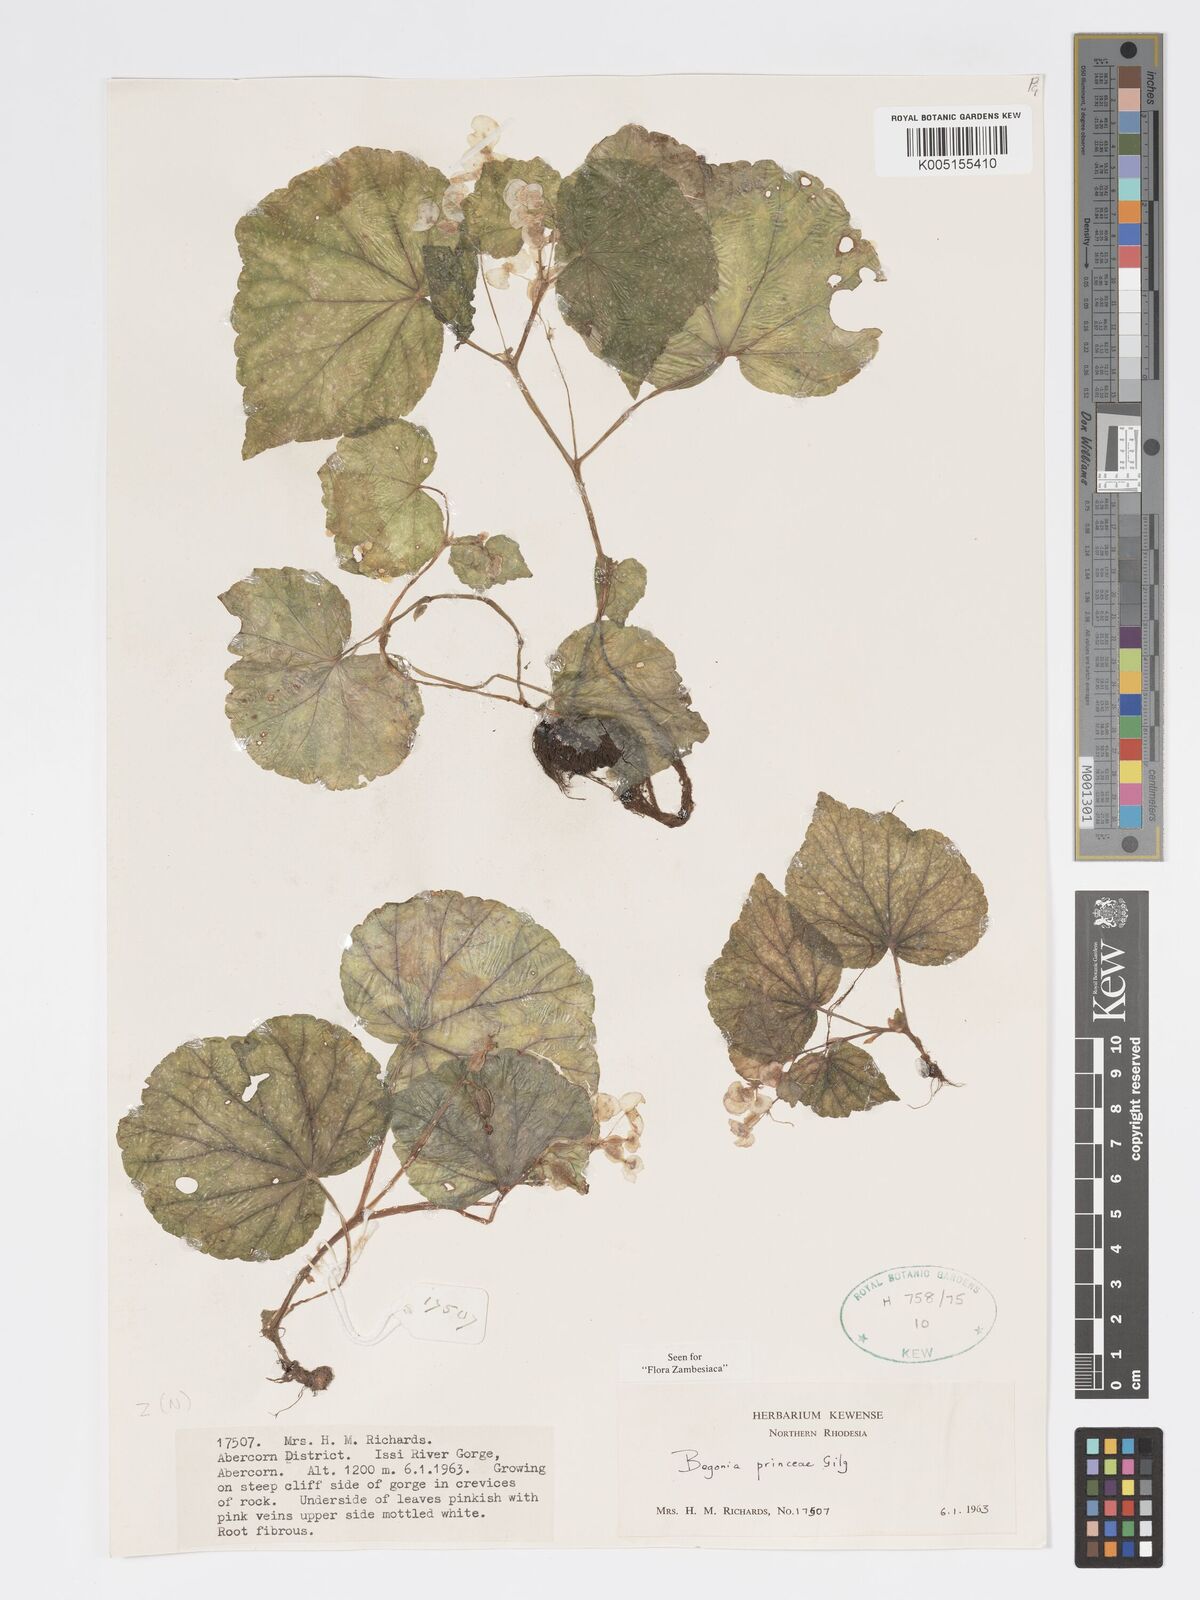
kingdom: Plantae
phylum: Tracheophyta
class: Magnoliopsida
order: Cucurbitales
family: Begoniaceae
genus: Begonia
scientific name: Begonia princeae
